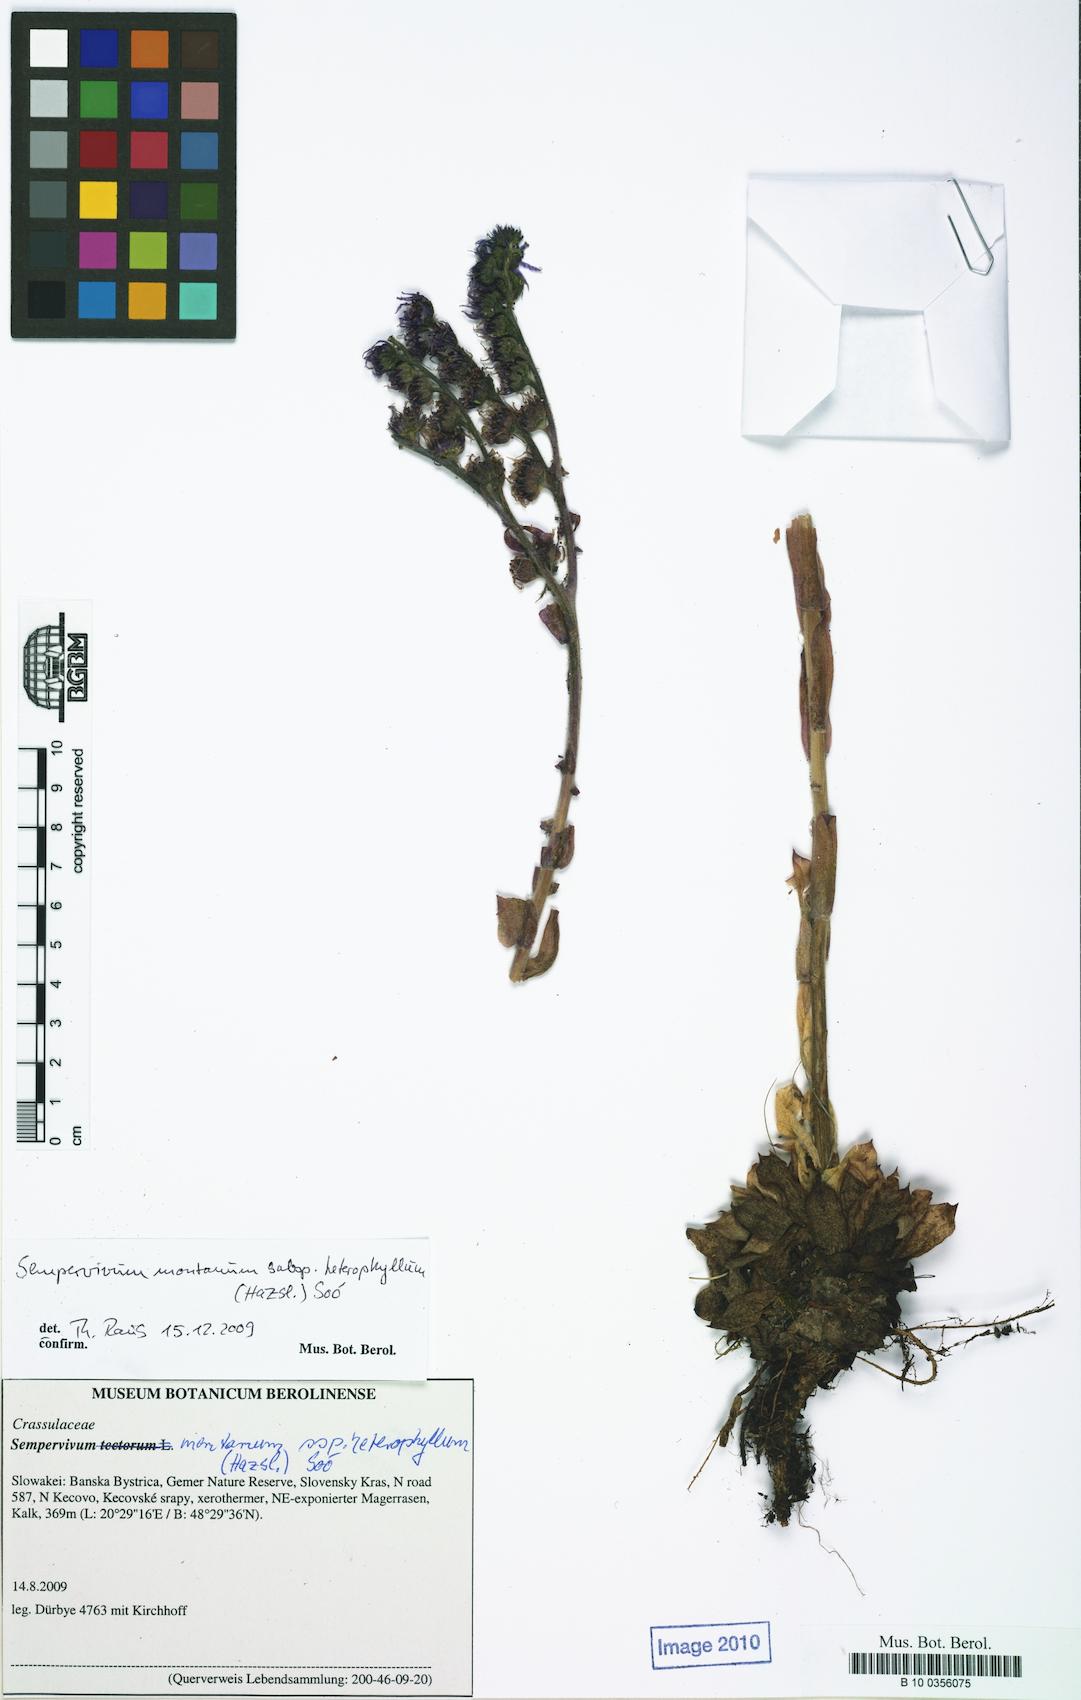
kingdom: Plantae
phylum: Tracheophyta
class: Magnoliopsida
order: Saxifragales
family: Crassulaceae
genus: Sempervivum
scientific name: Sempervivum montanum
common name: Mountain house-leek
